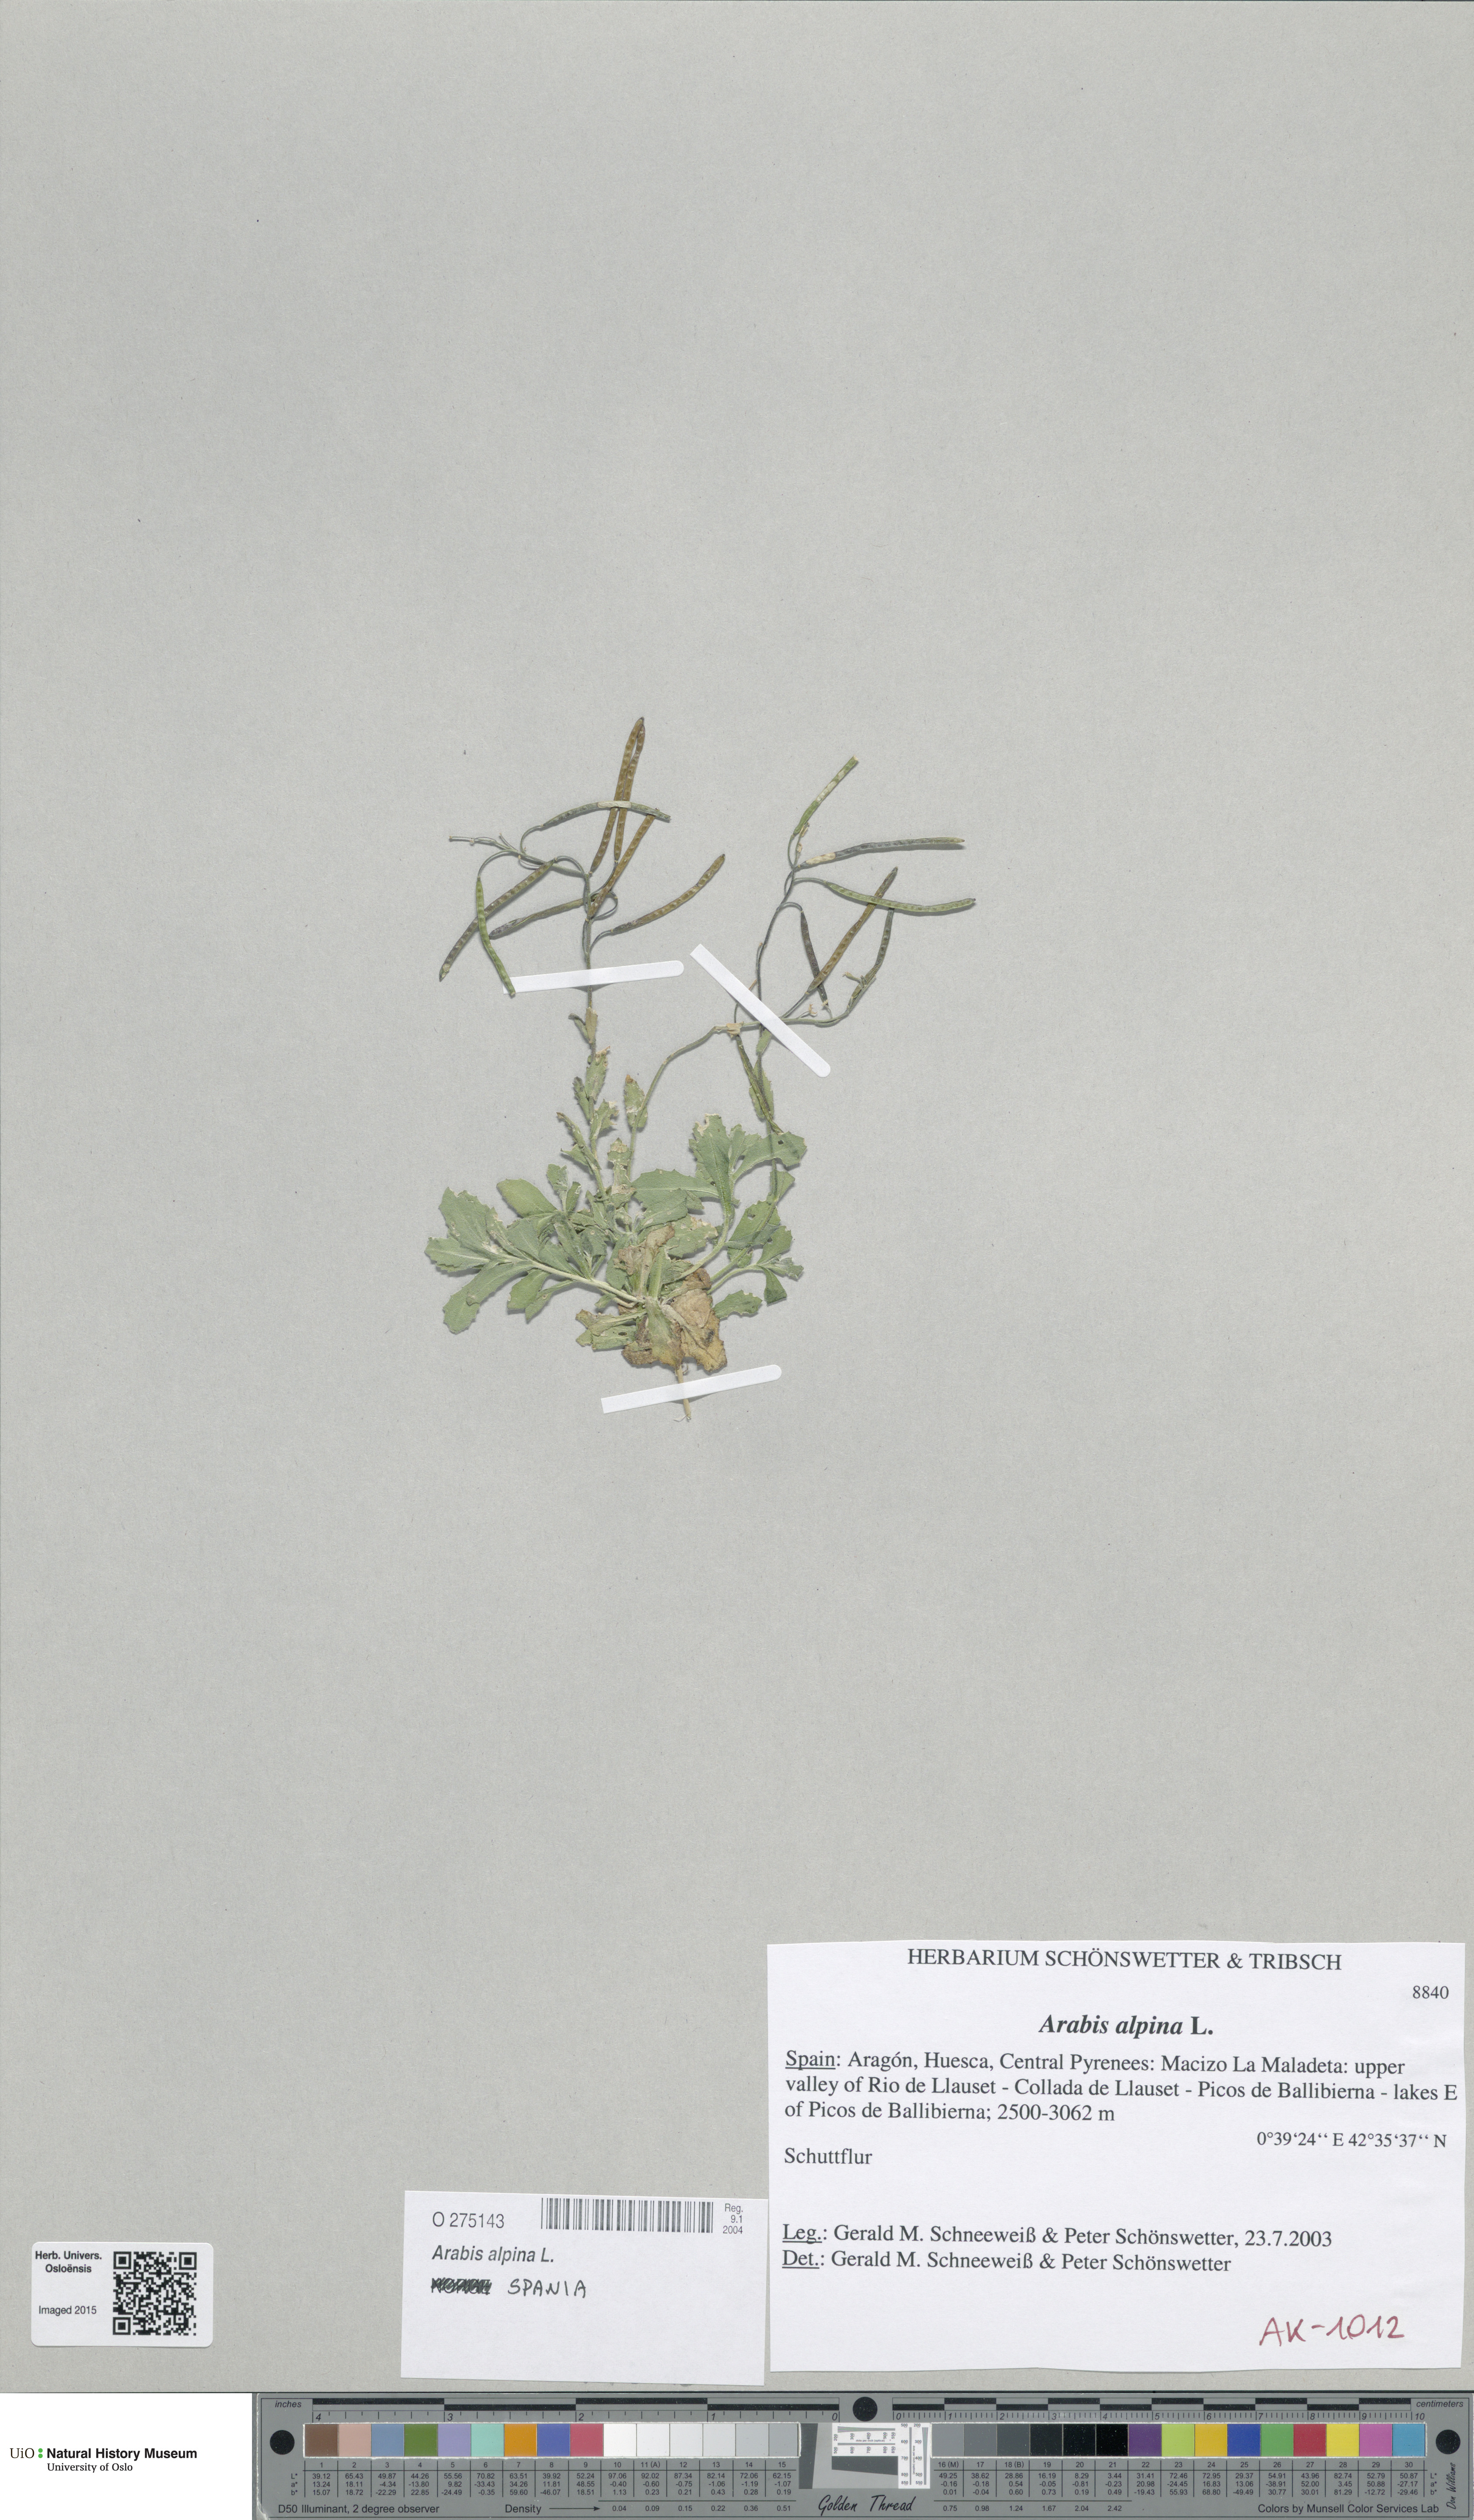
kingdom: Plantae
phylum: Tracheophyta
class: Magnoliopsida
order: Brassicales
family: Brassicaceae
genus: Arabis
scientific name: Arabis alpina
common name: Alpine rock-cress
